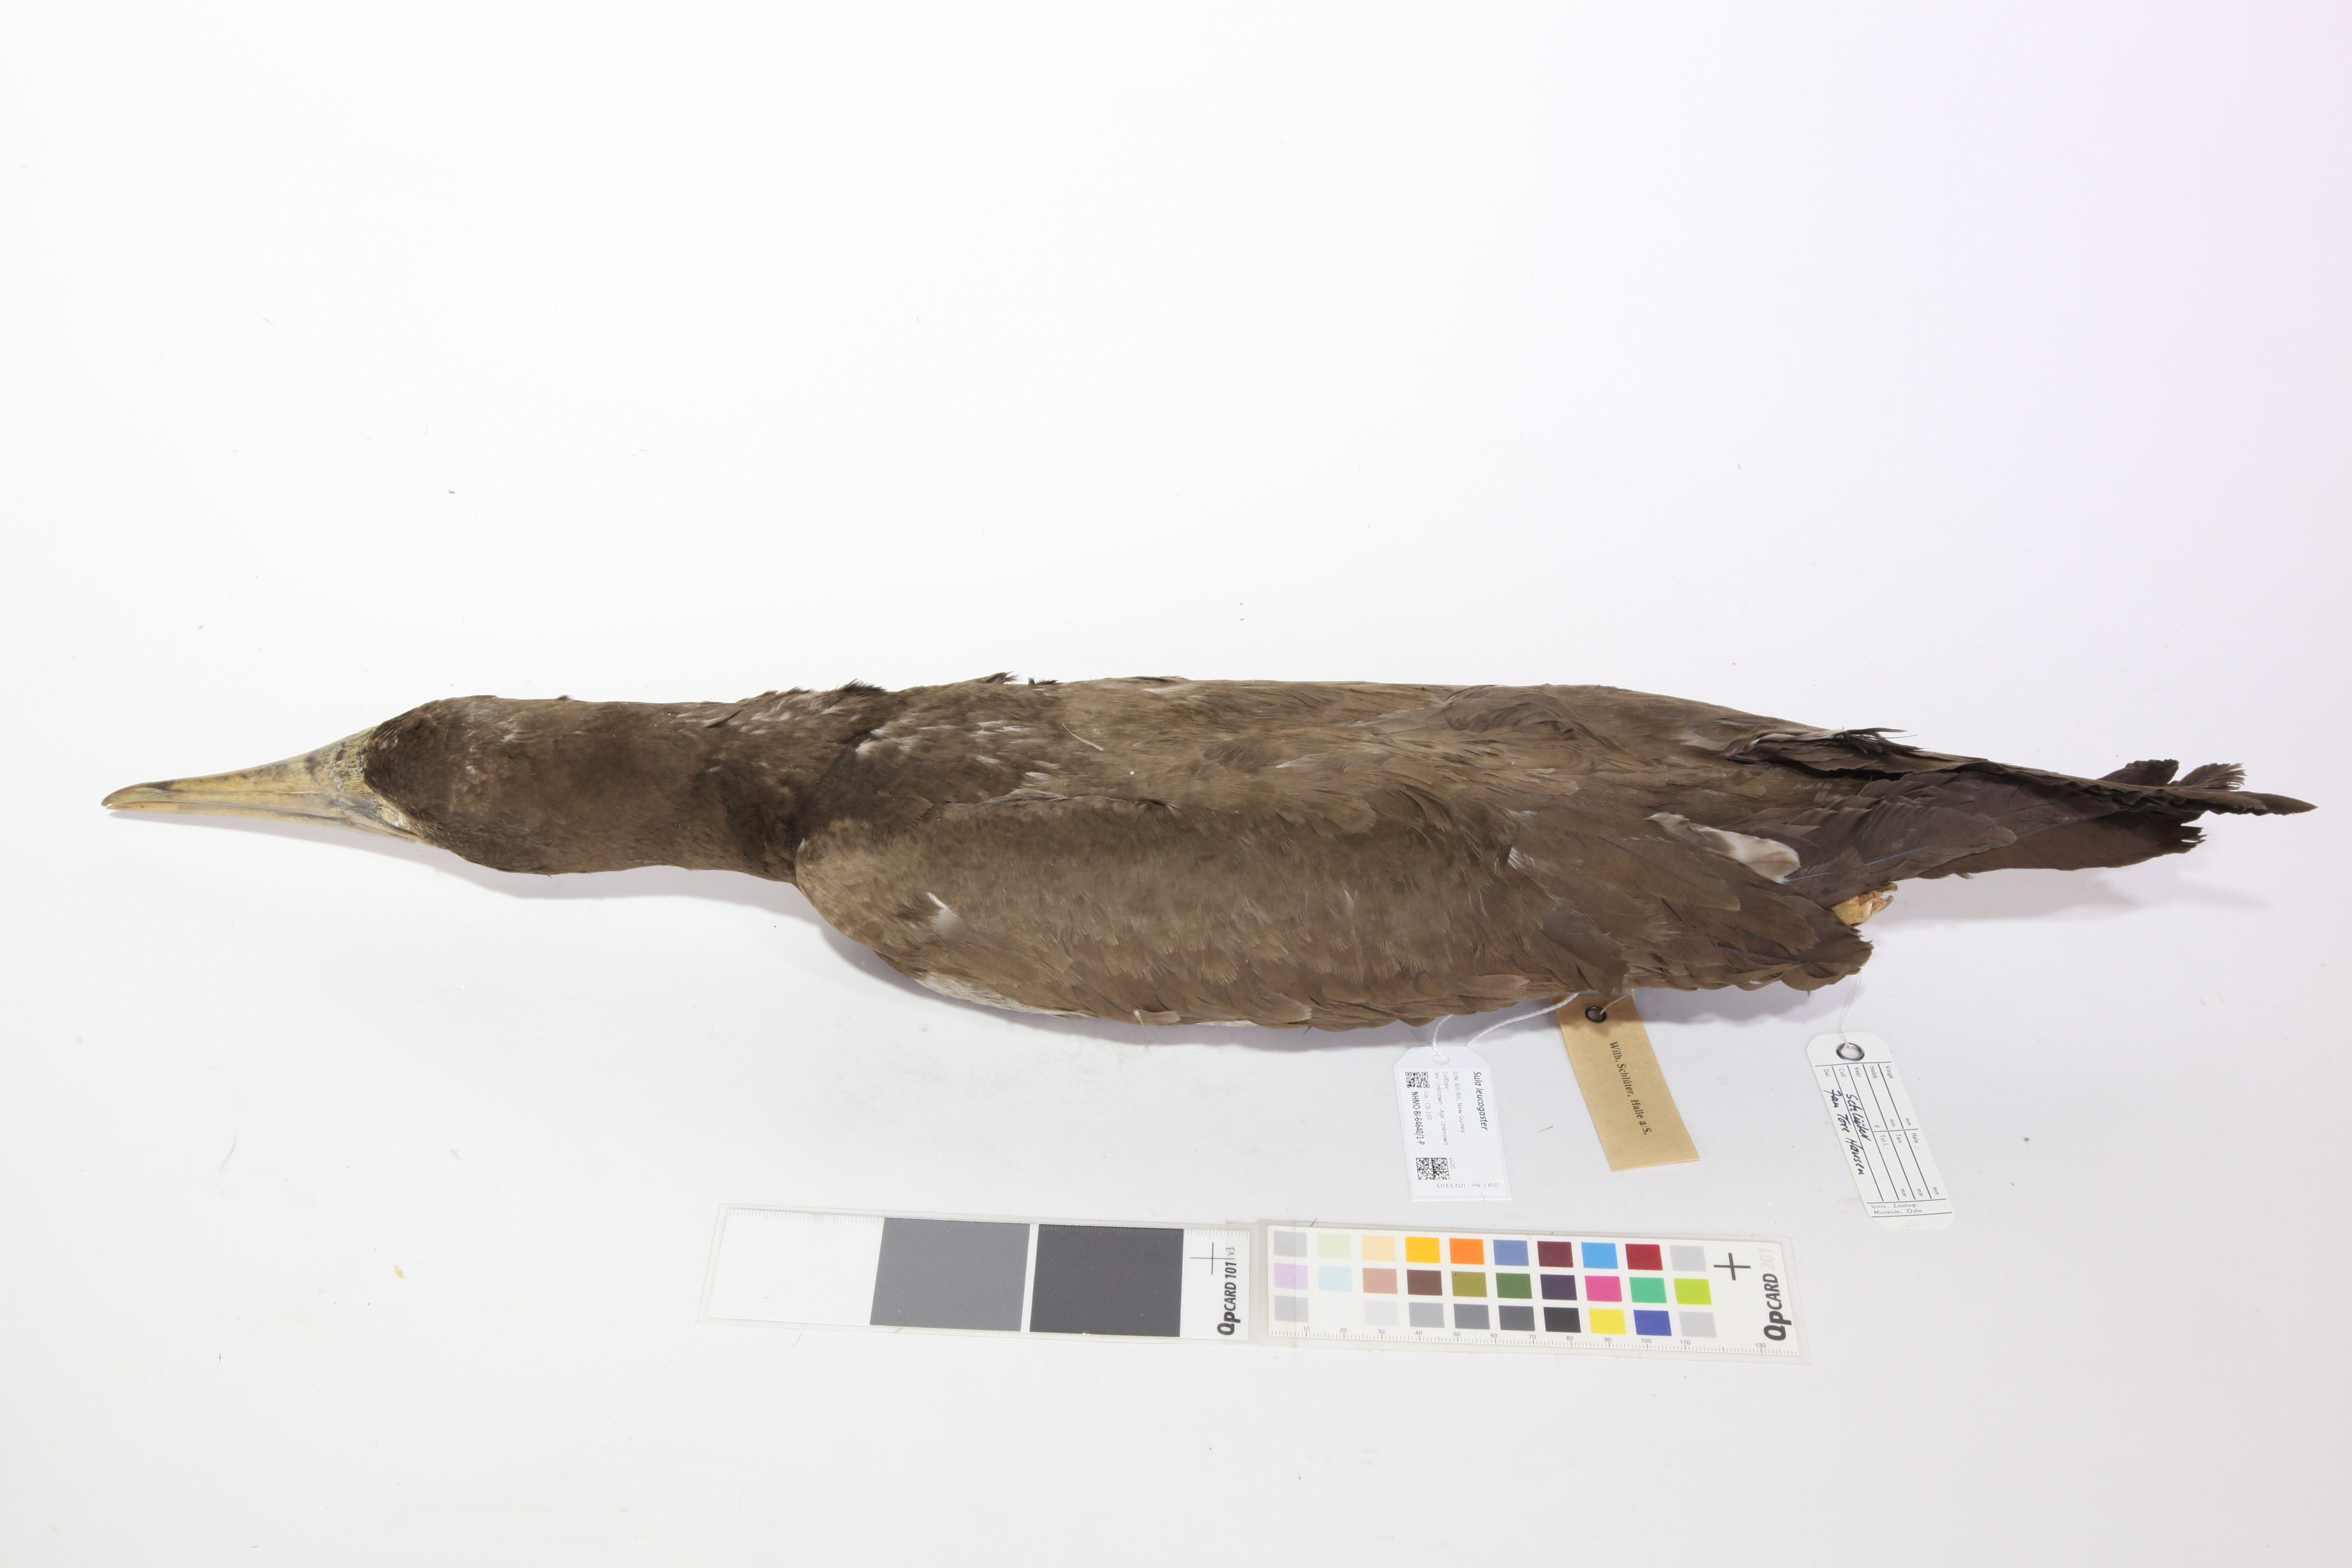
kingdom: Animalia
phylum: Chordata
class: Aves
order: Suliformes
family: Sulidae
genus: Sula
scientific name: Sula leucogaster
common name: Brown booby
